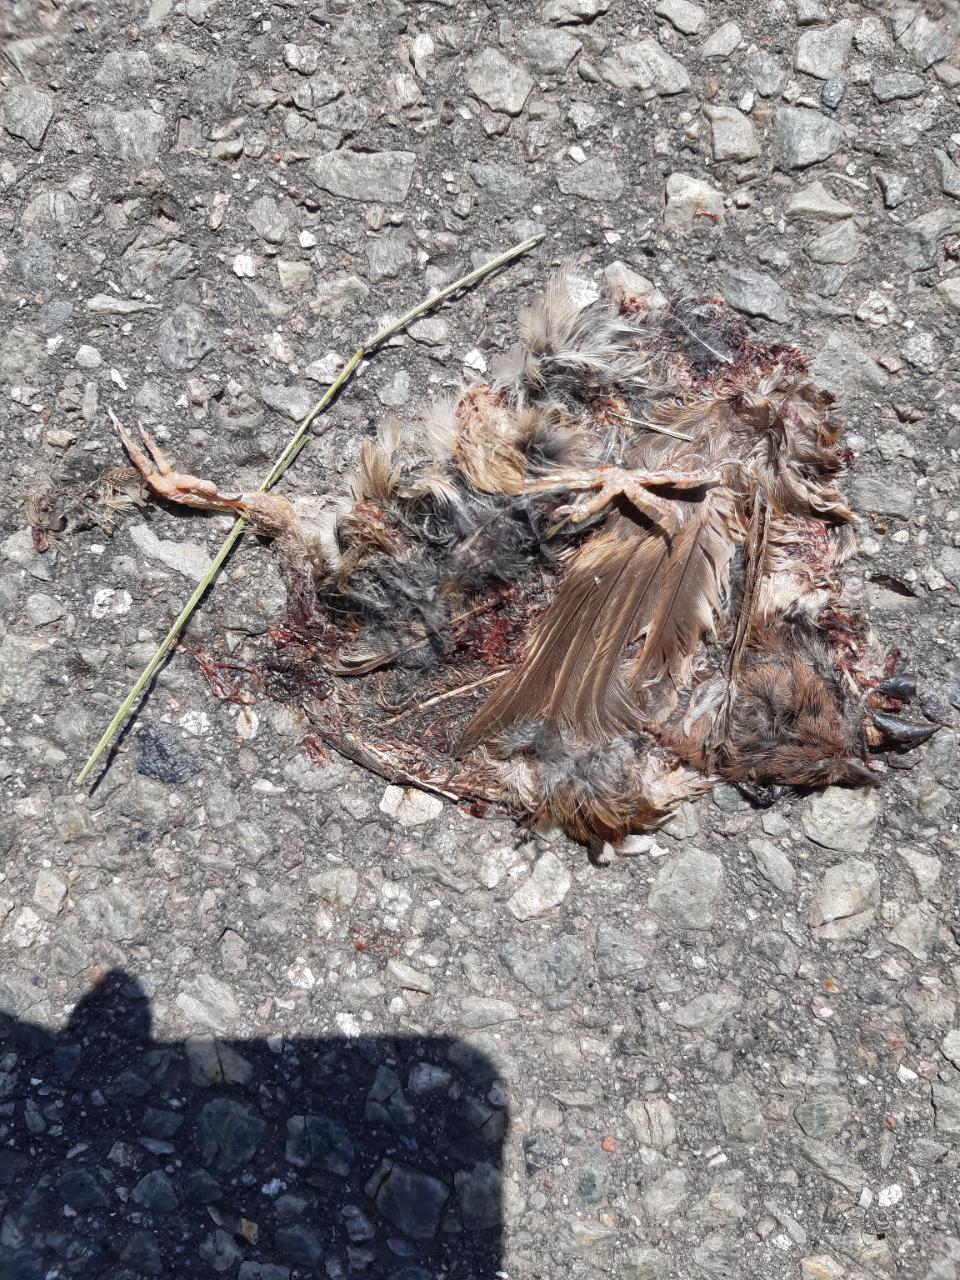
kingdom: Animalia
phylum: Chordata
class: Aves
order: Passeriformes
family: Passeridae
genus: Passer
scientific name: Passer montanus
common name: Eurasian tree sparrow
